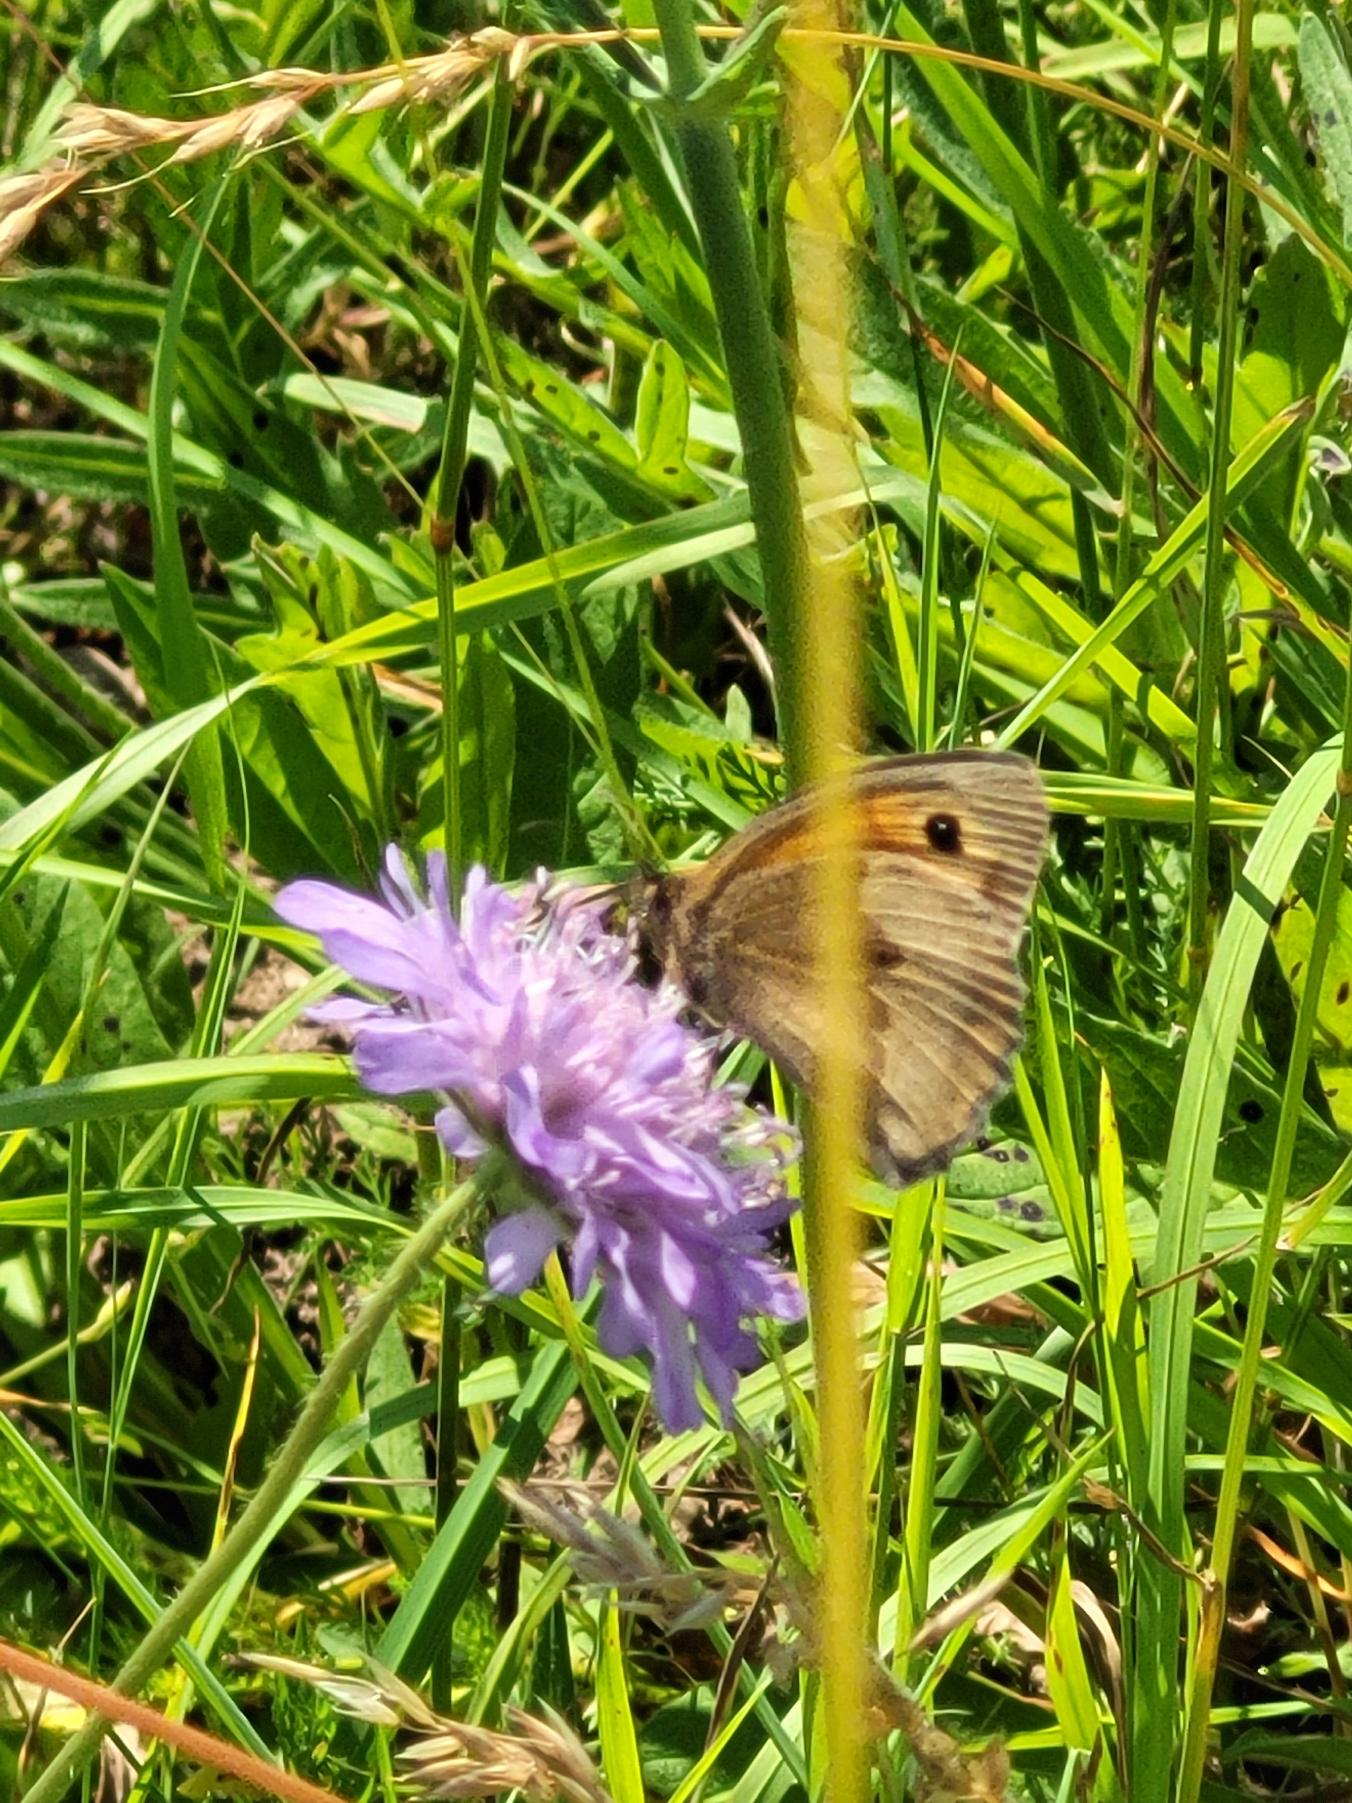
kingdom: Animalia
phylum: Arthropoda
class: Insecta
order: Lepidoptera
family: Nymphalidae
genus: Maniola
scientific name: Maniola jurtina
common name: Græsrandøje
